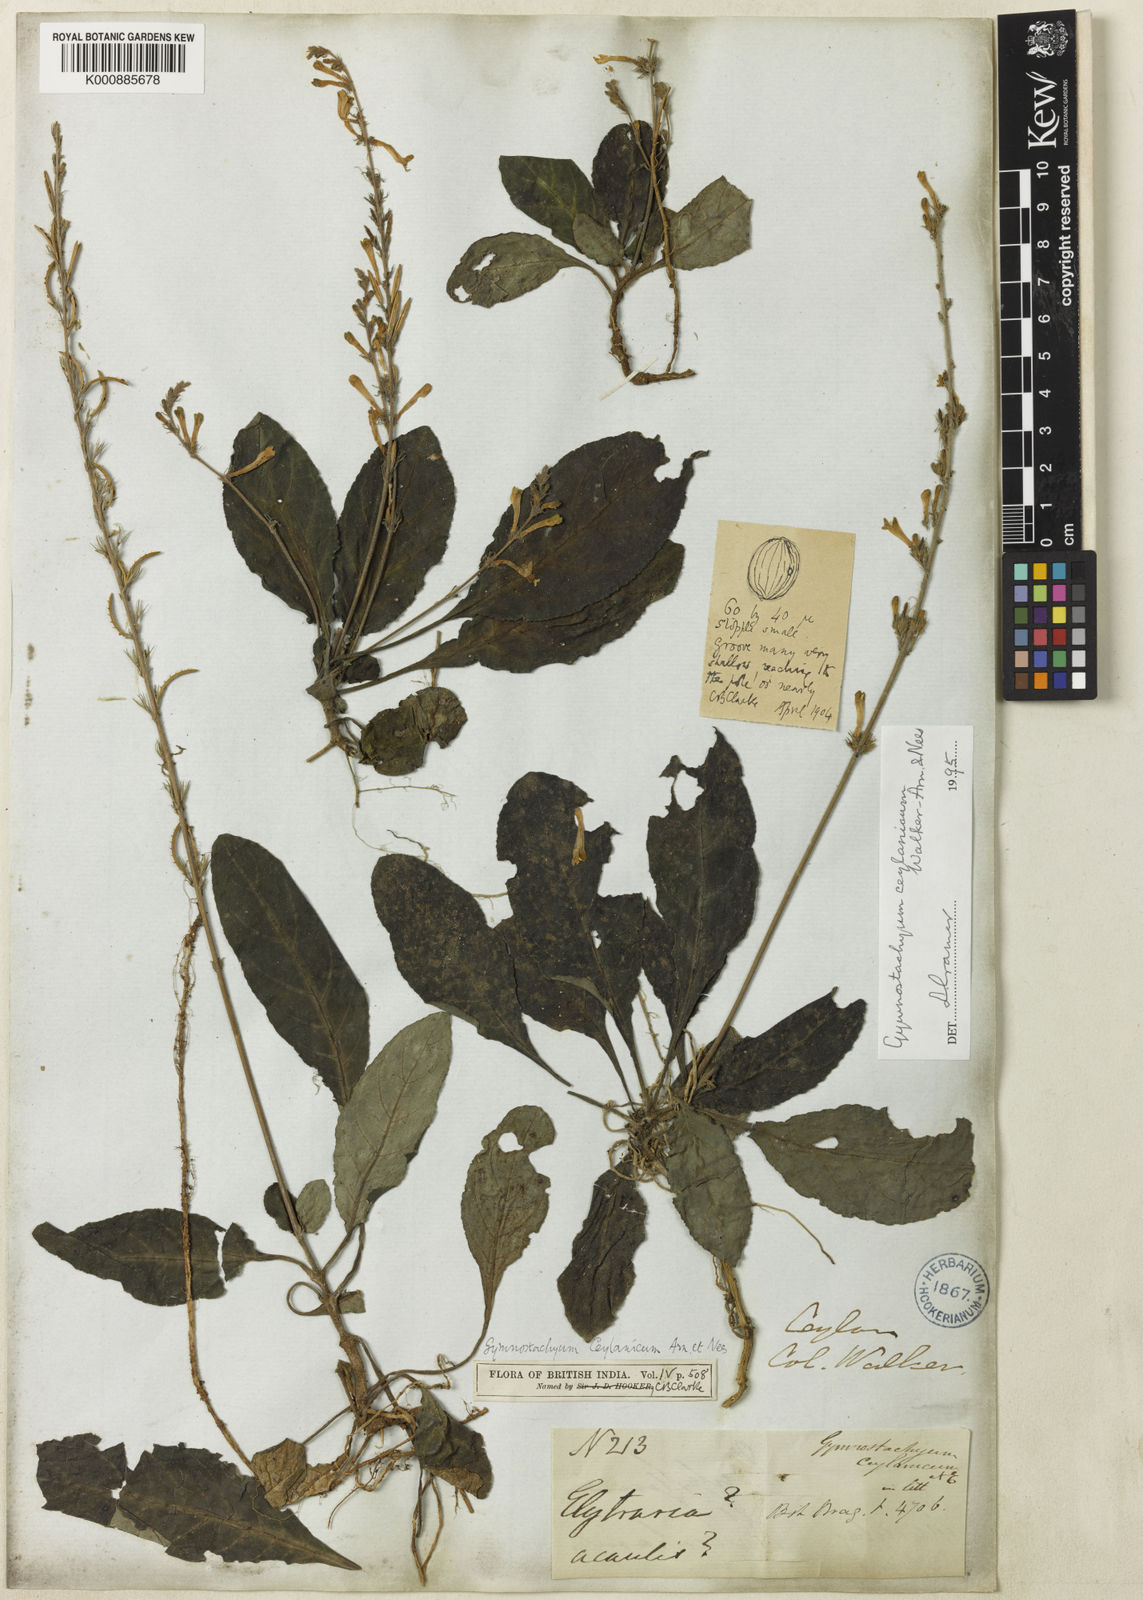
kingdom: Plantae
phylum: Tracheophyta
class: Magnoliopsida
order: Lamiales
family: Acanthaceae
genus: Gymnostachyum
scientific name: Gymnostachyum ceylanicum
